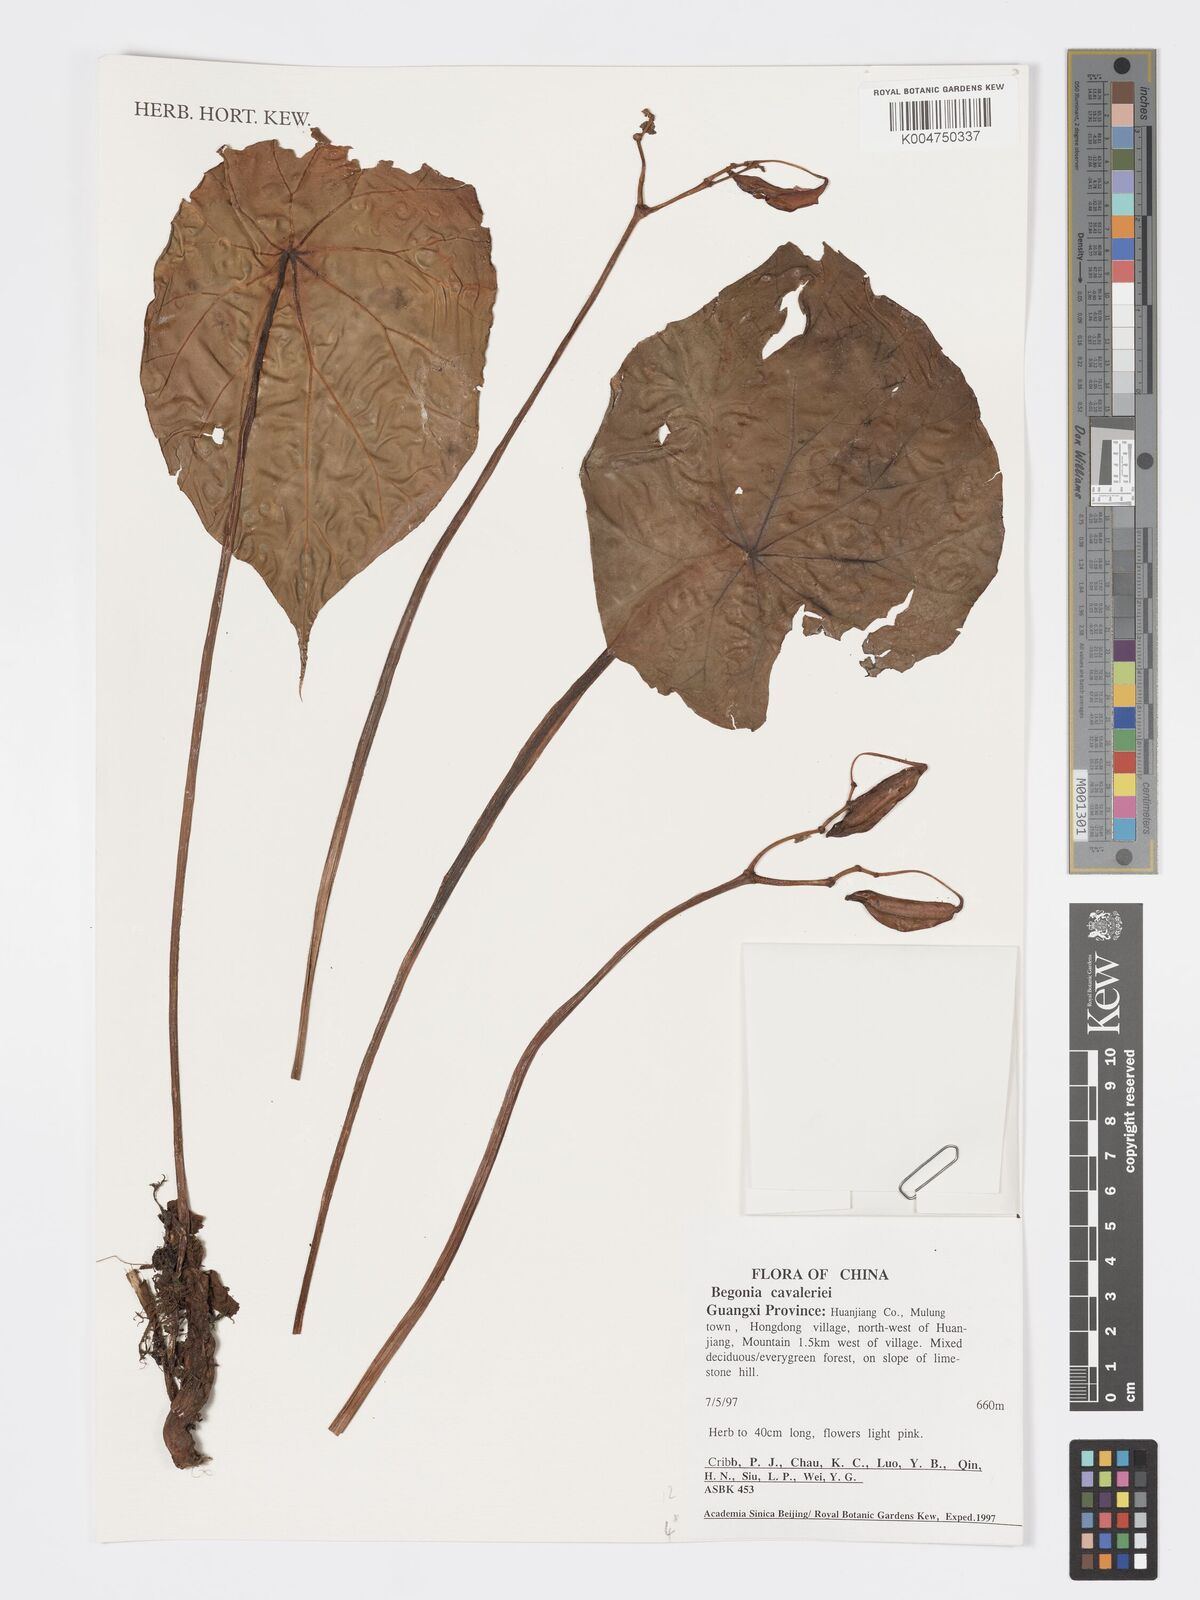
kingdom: Plantae
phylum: Tracheophyta
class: Magnoliopsida
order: Cucurbitales
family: Begoniaceae
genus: Begonia
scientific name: Begonia cavaleriei
